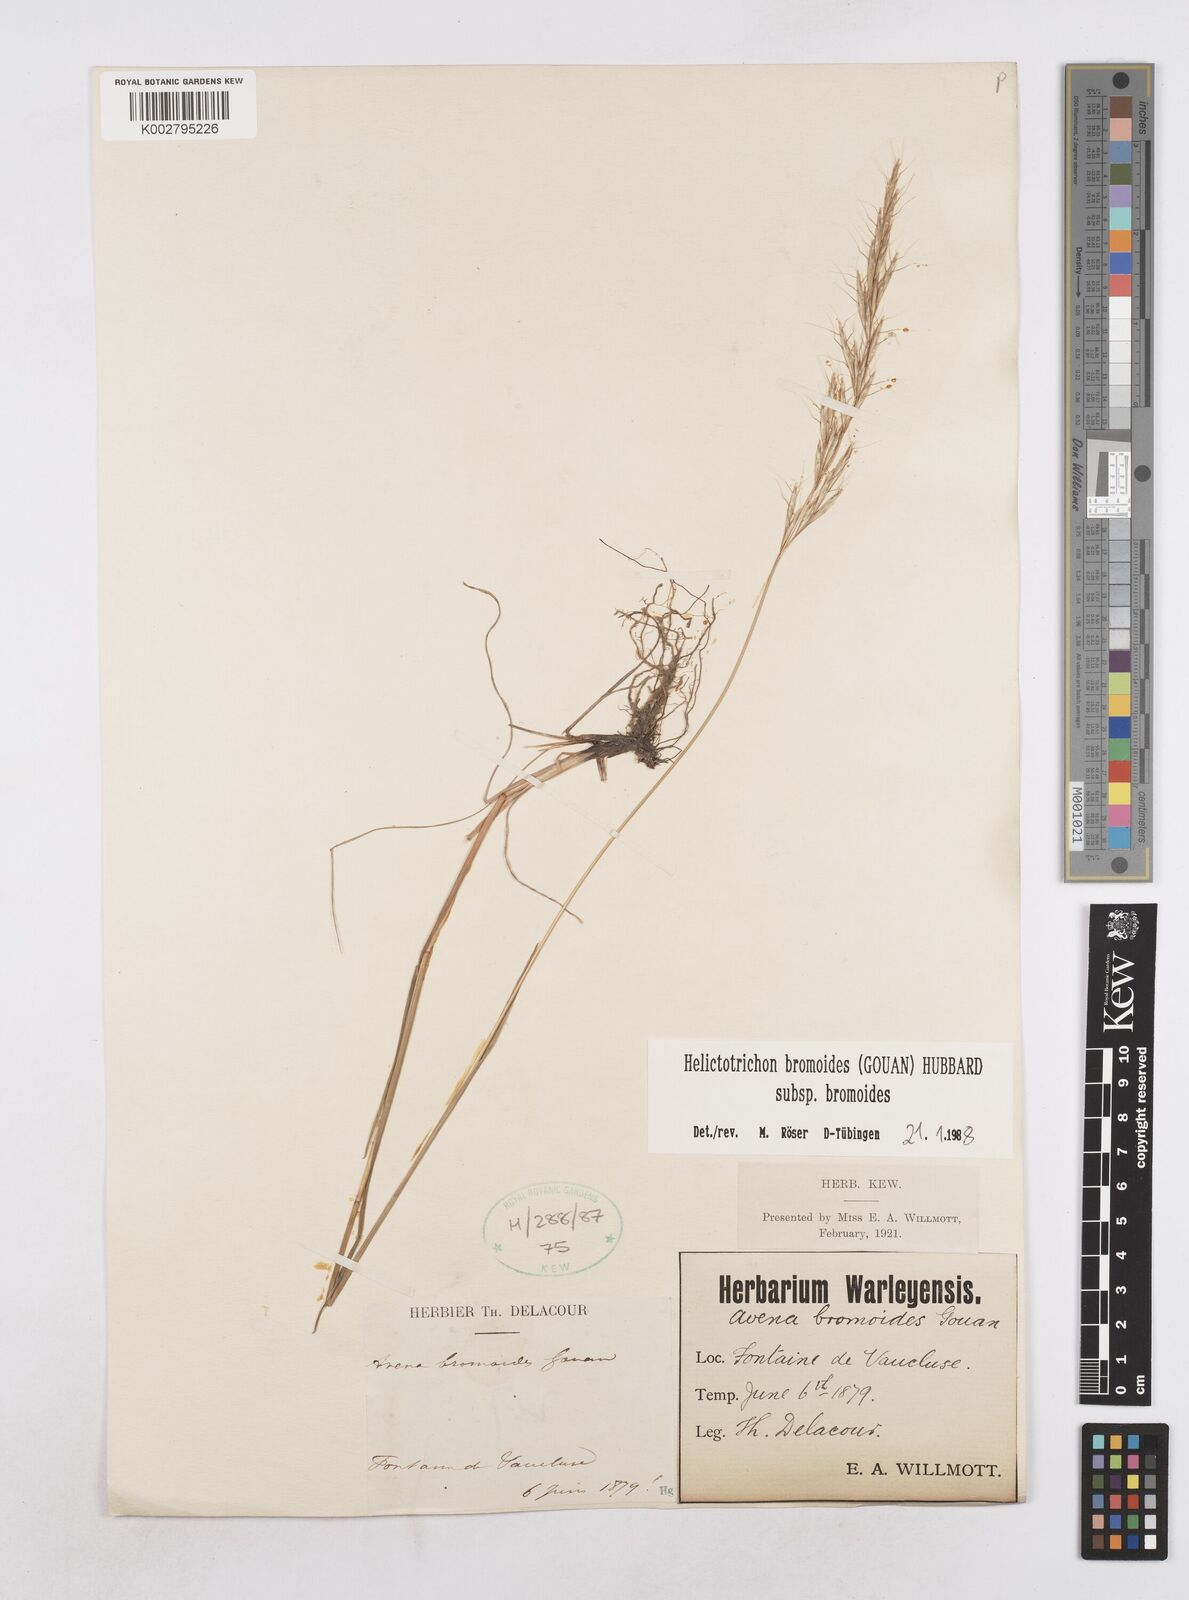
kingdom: Plantae
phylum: Tracheophyta
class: Liliopsida
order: Poales
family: Poaceae
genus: Helictochloa
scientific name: Helictochloa bromoides
